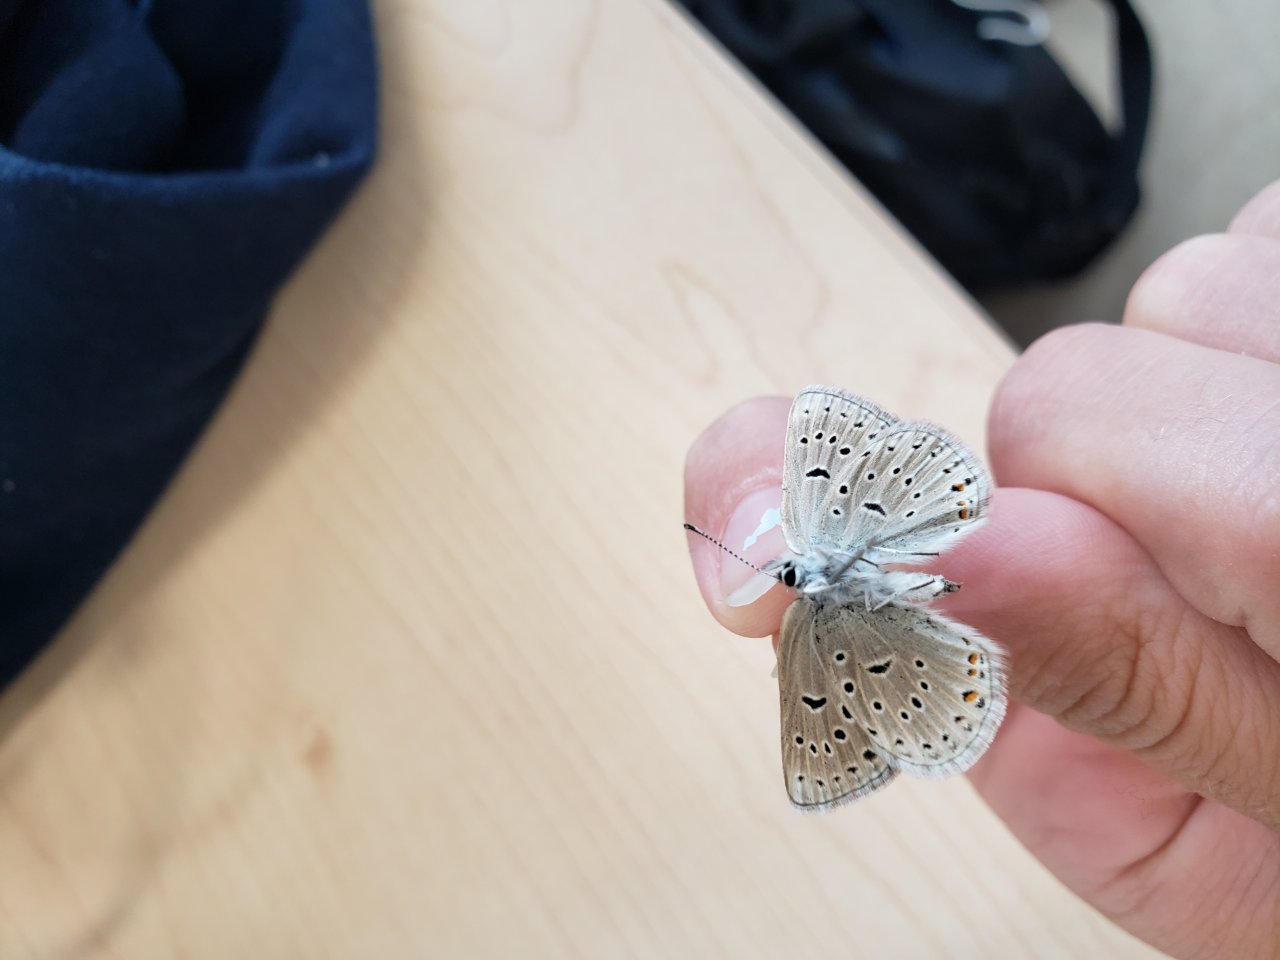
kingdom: Animalia
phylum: Arthropoda
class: Insecta
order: Lepidoptera
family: Lycaenidae
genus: Plebejus
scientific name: Plebejus saepiolus
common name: Greenish Blue
